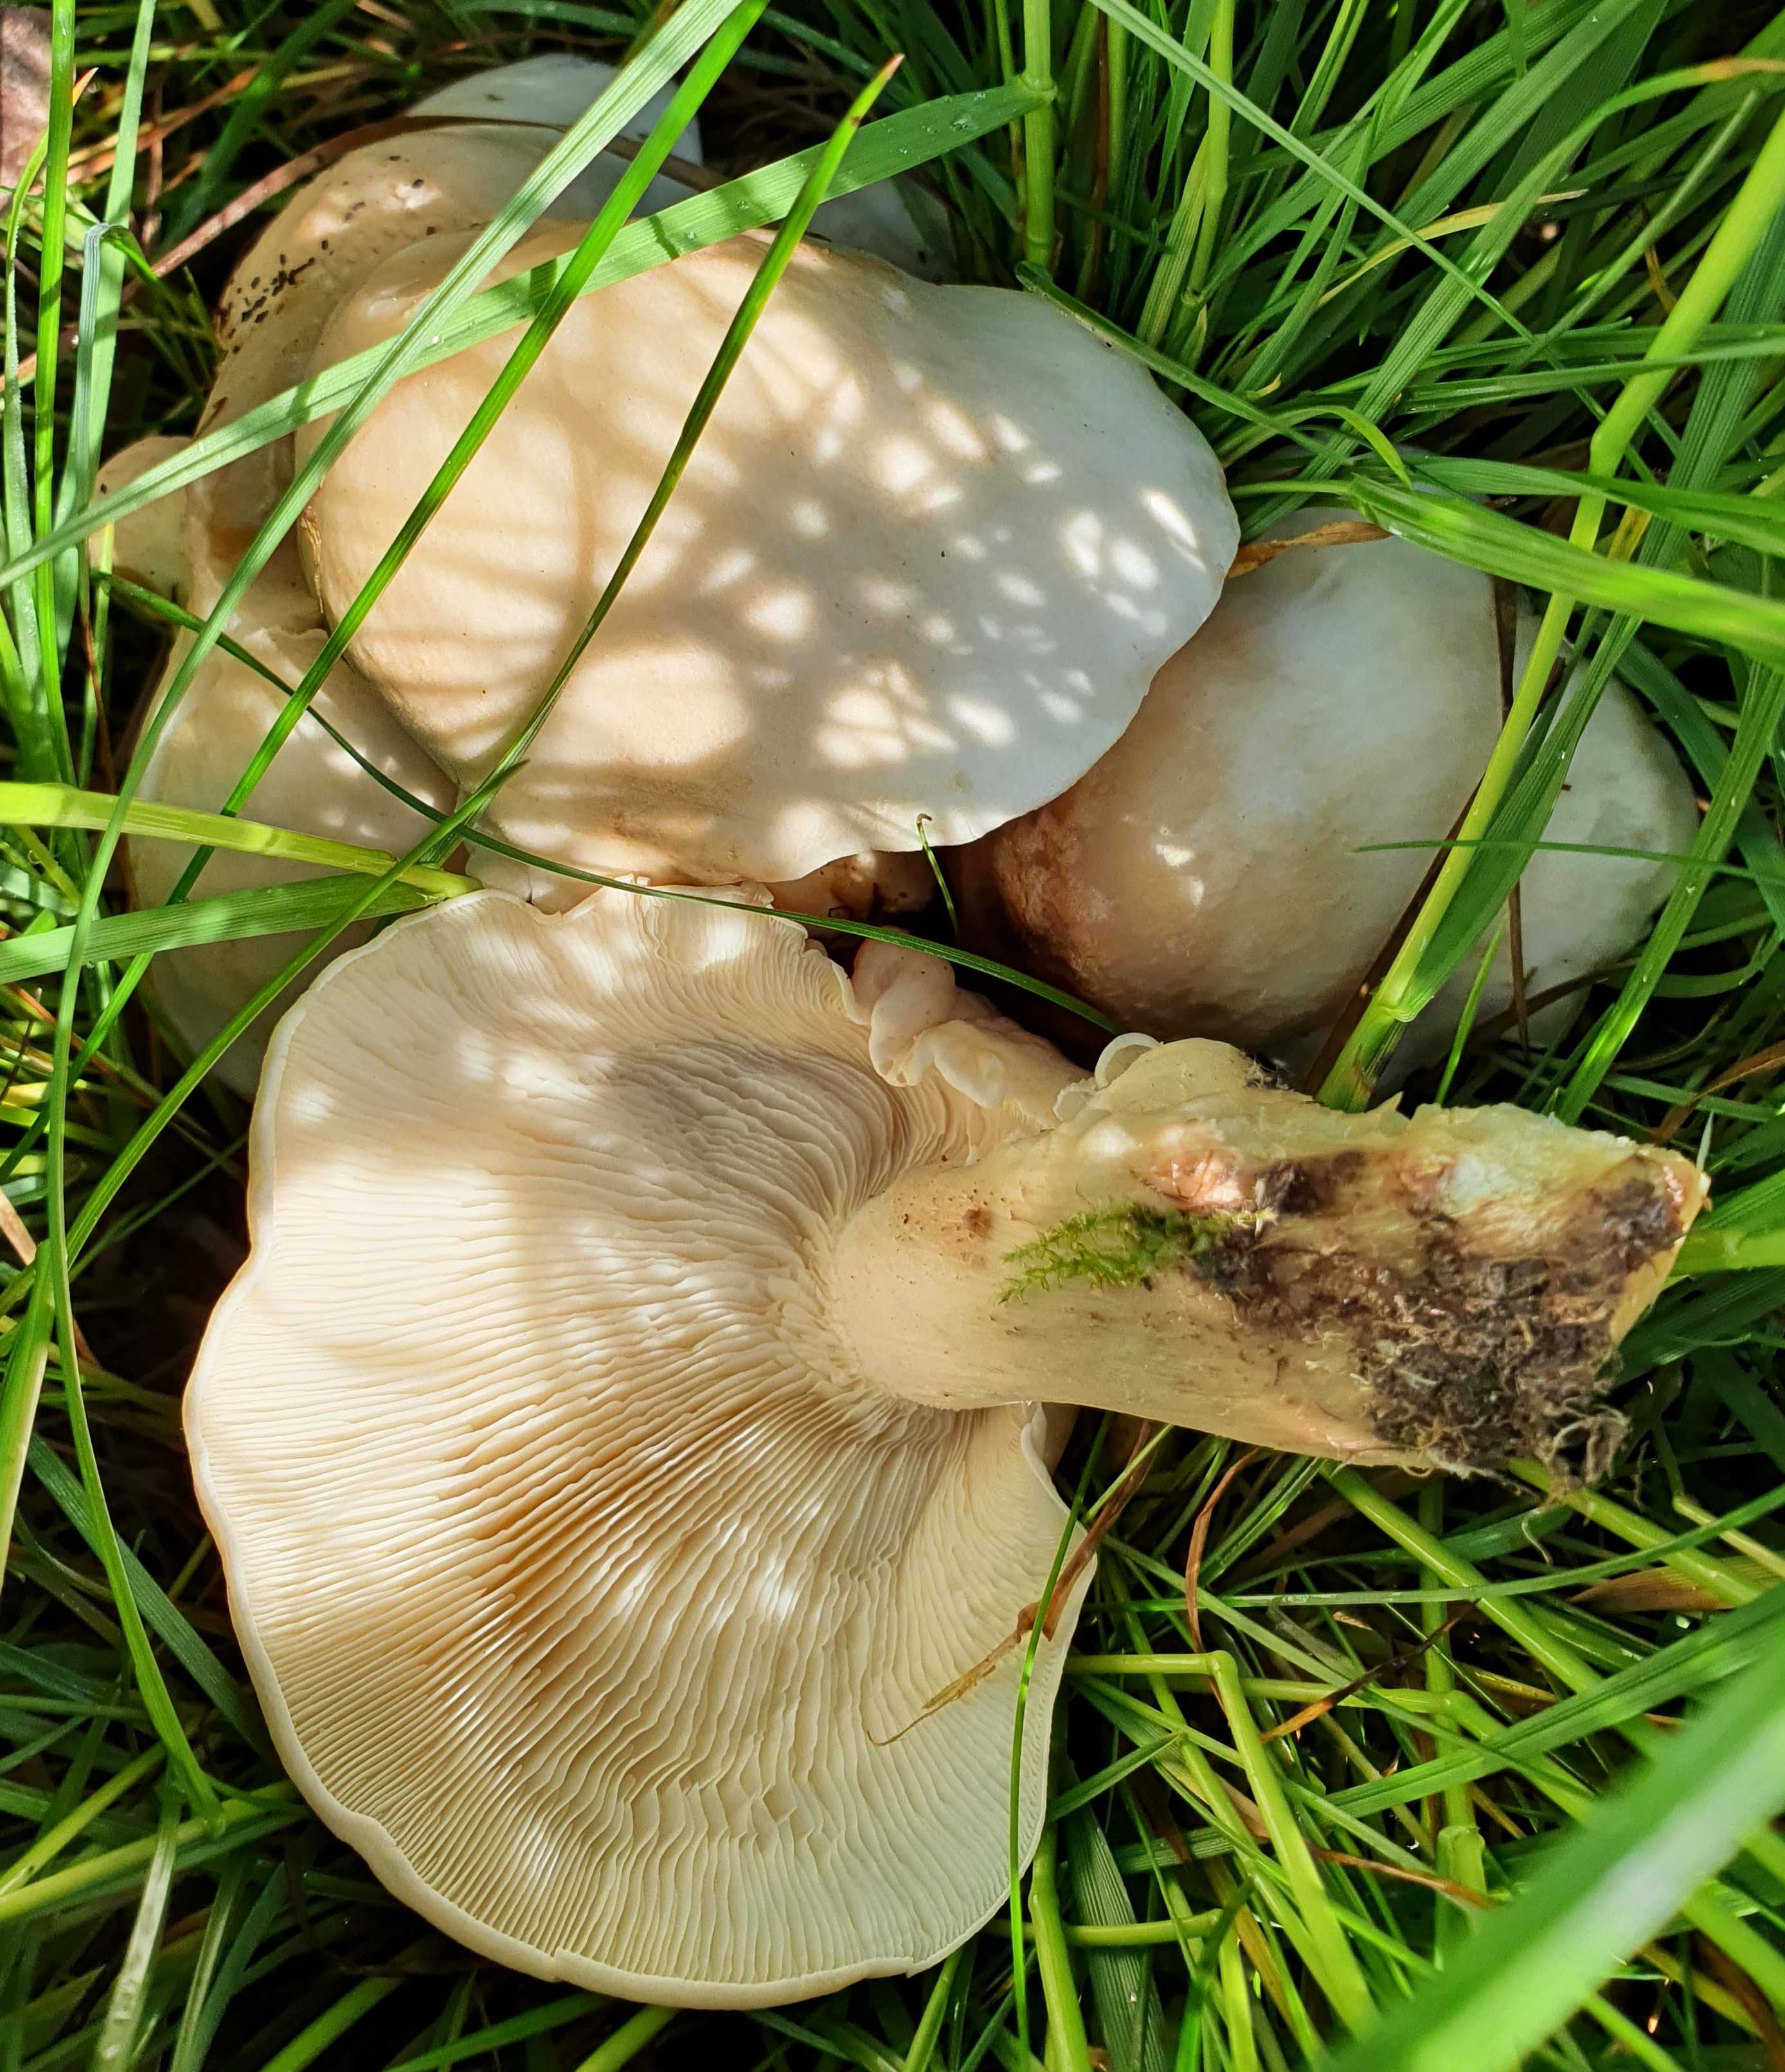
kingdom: Fungi
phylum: Basidiomycota
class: Agaricomycetes
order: Agaricales
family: Lyophyllaceae
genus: Calocybe
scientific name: Calocybe gambosa
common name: vårmusseron
